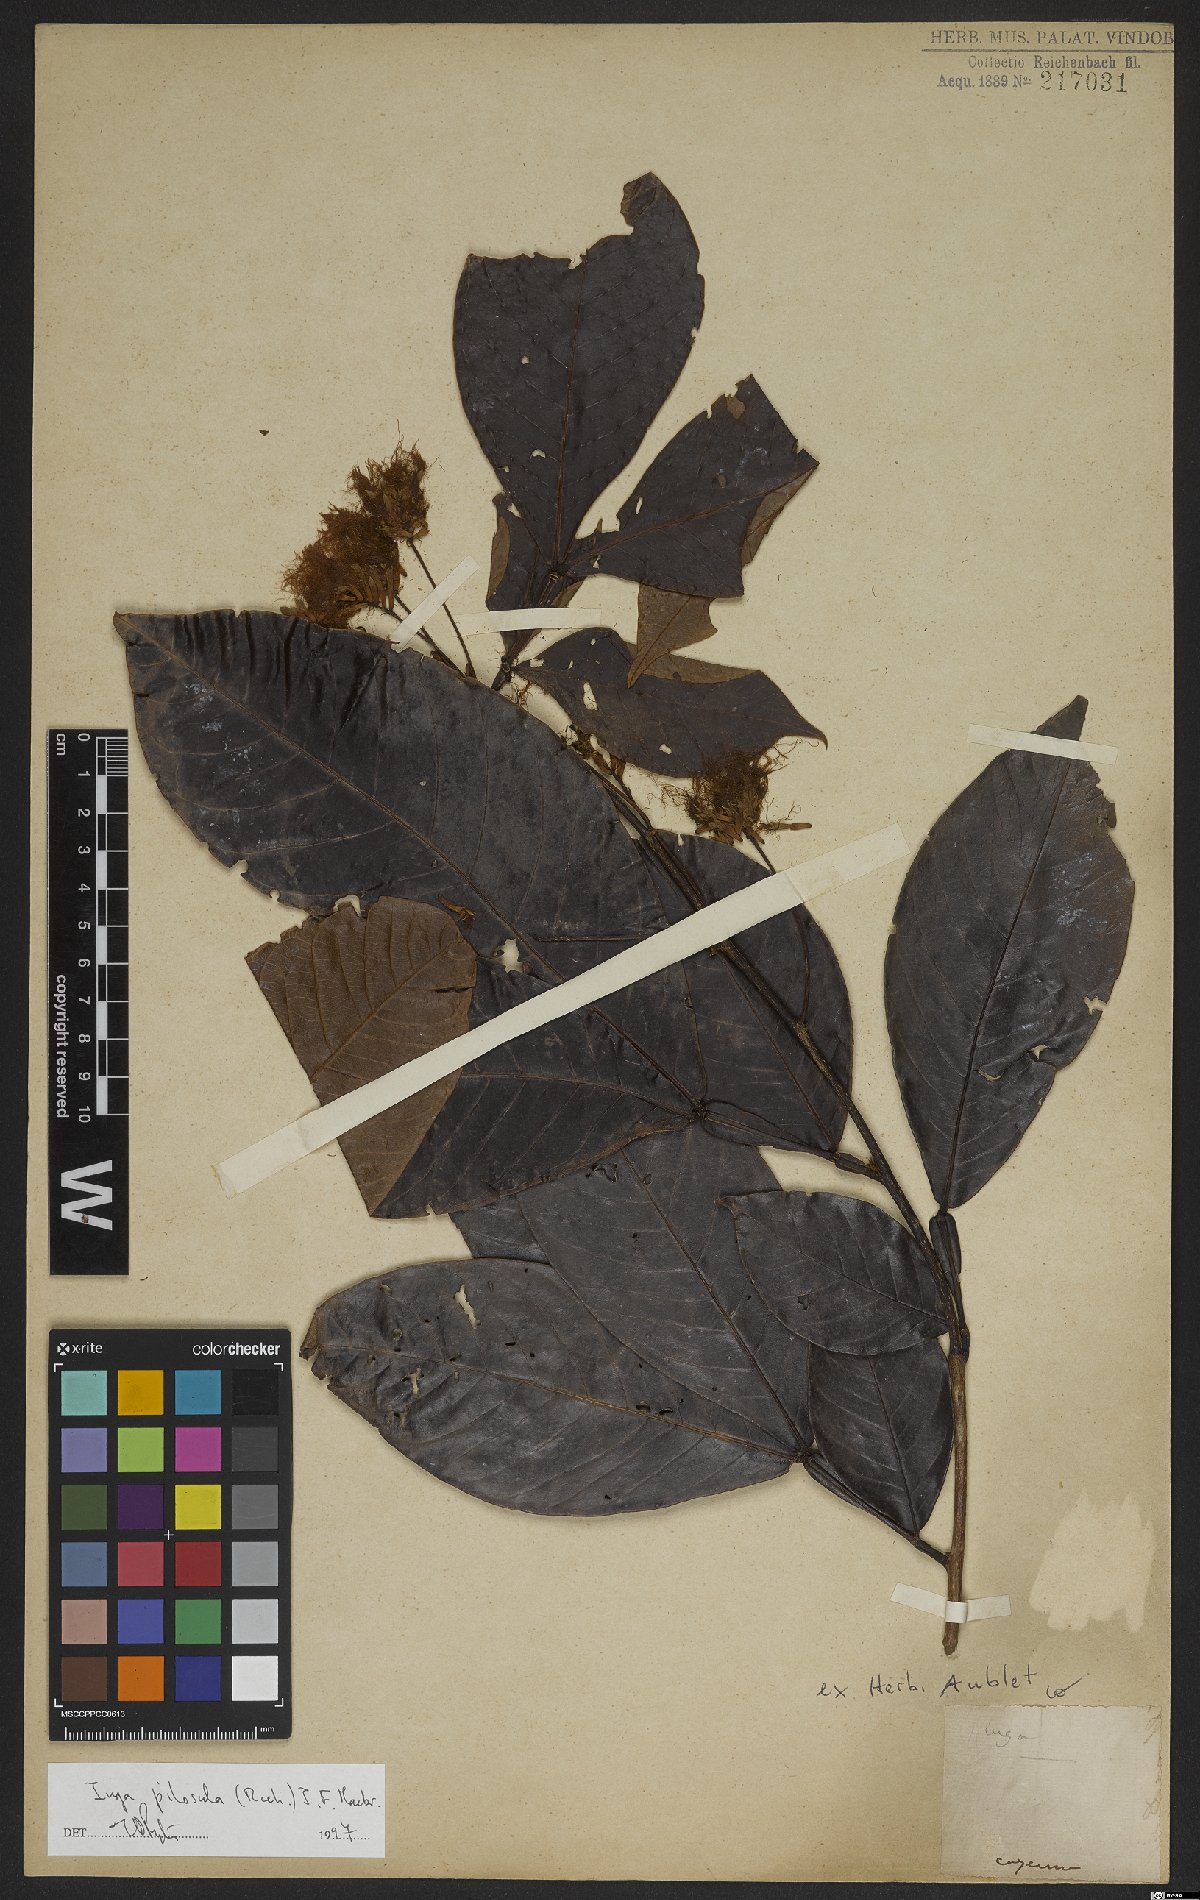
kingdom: Plantae
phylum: Tracheophyta
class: Magnoliopsida
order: Fabales
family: Fabaceae
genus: Inga
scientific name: Inga pilosula
